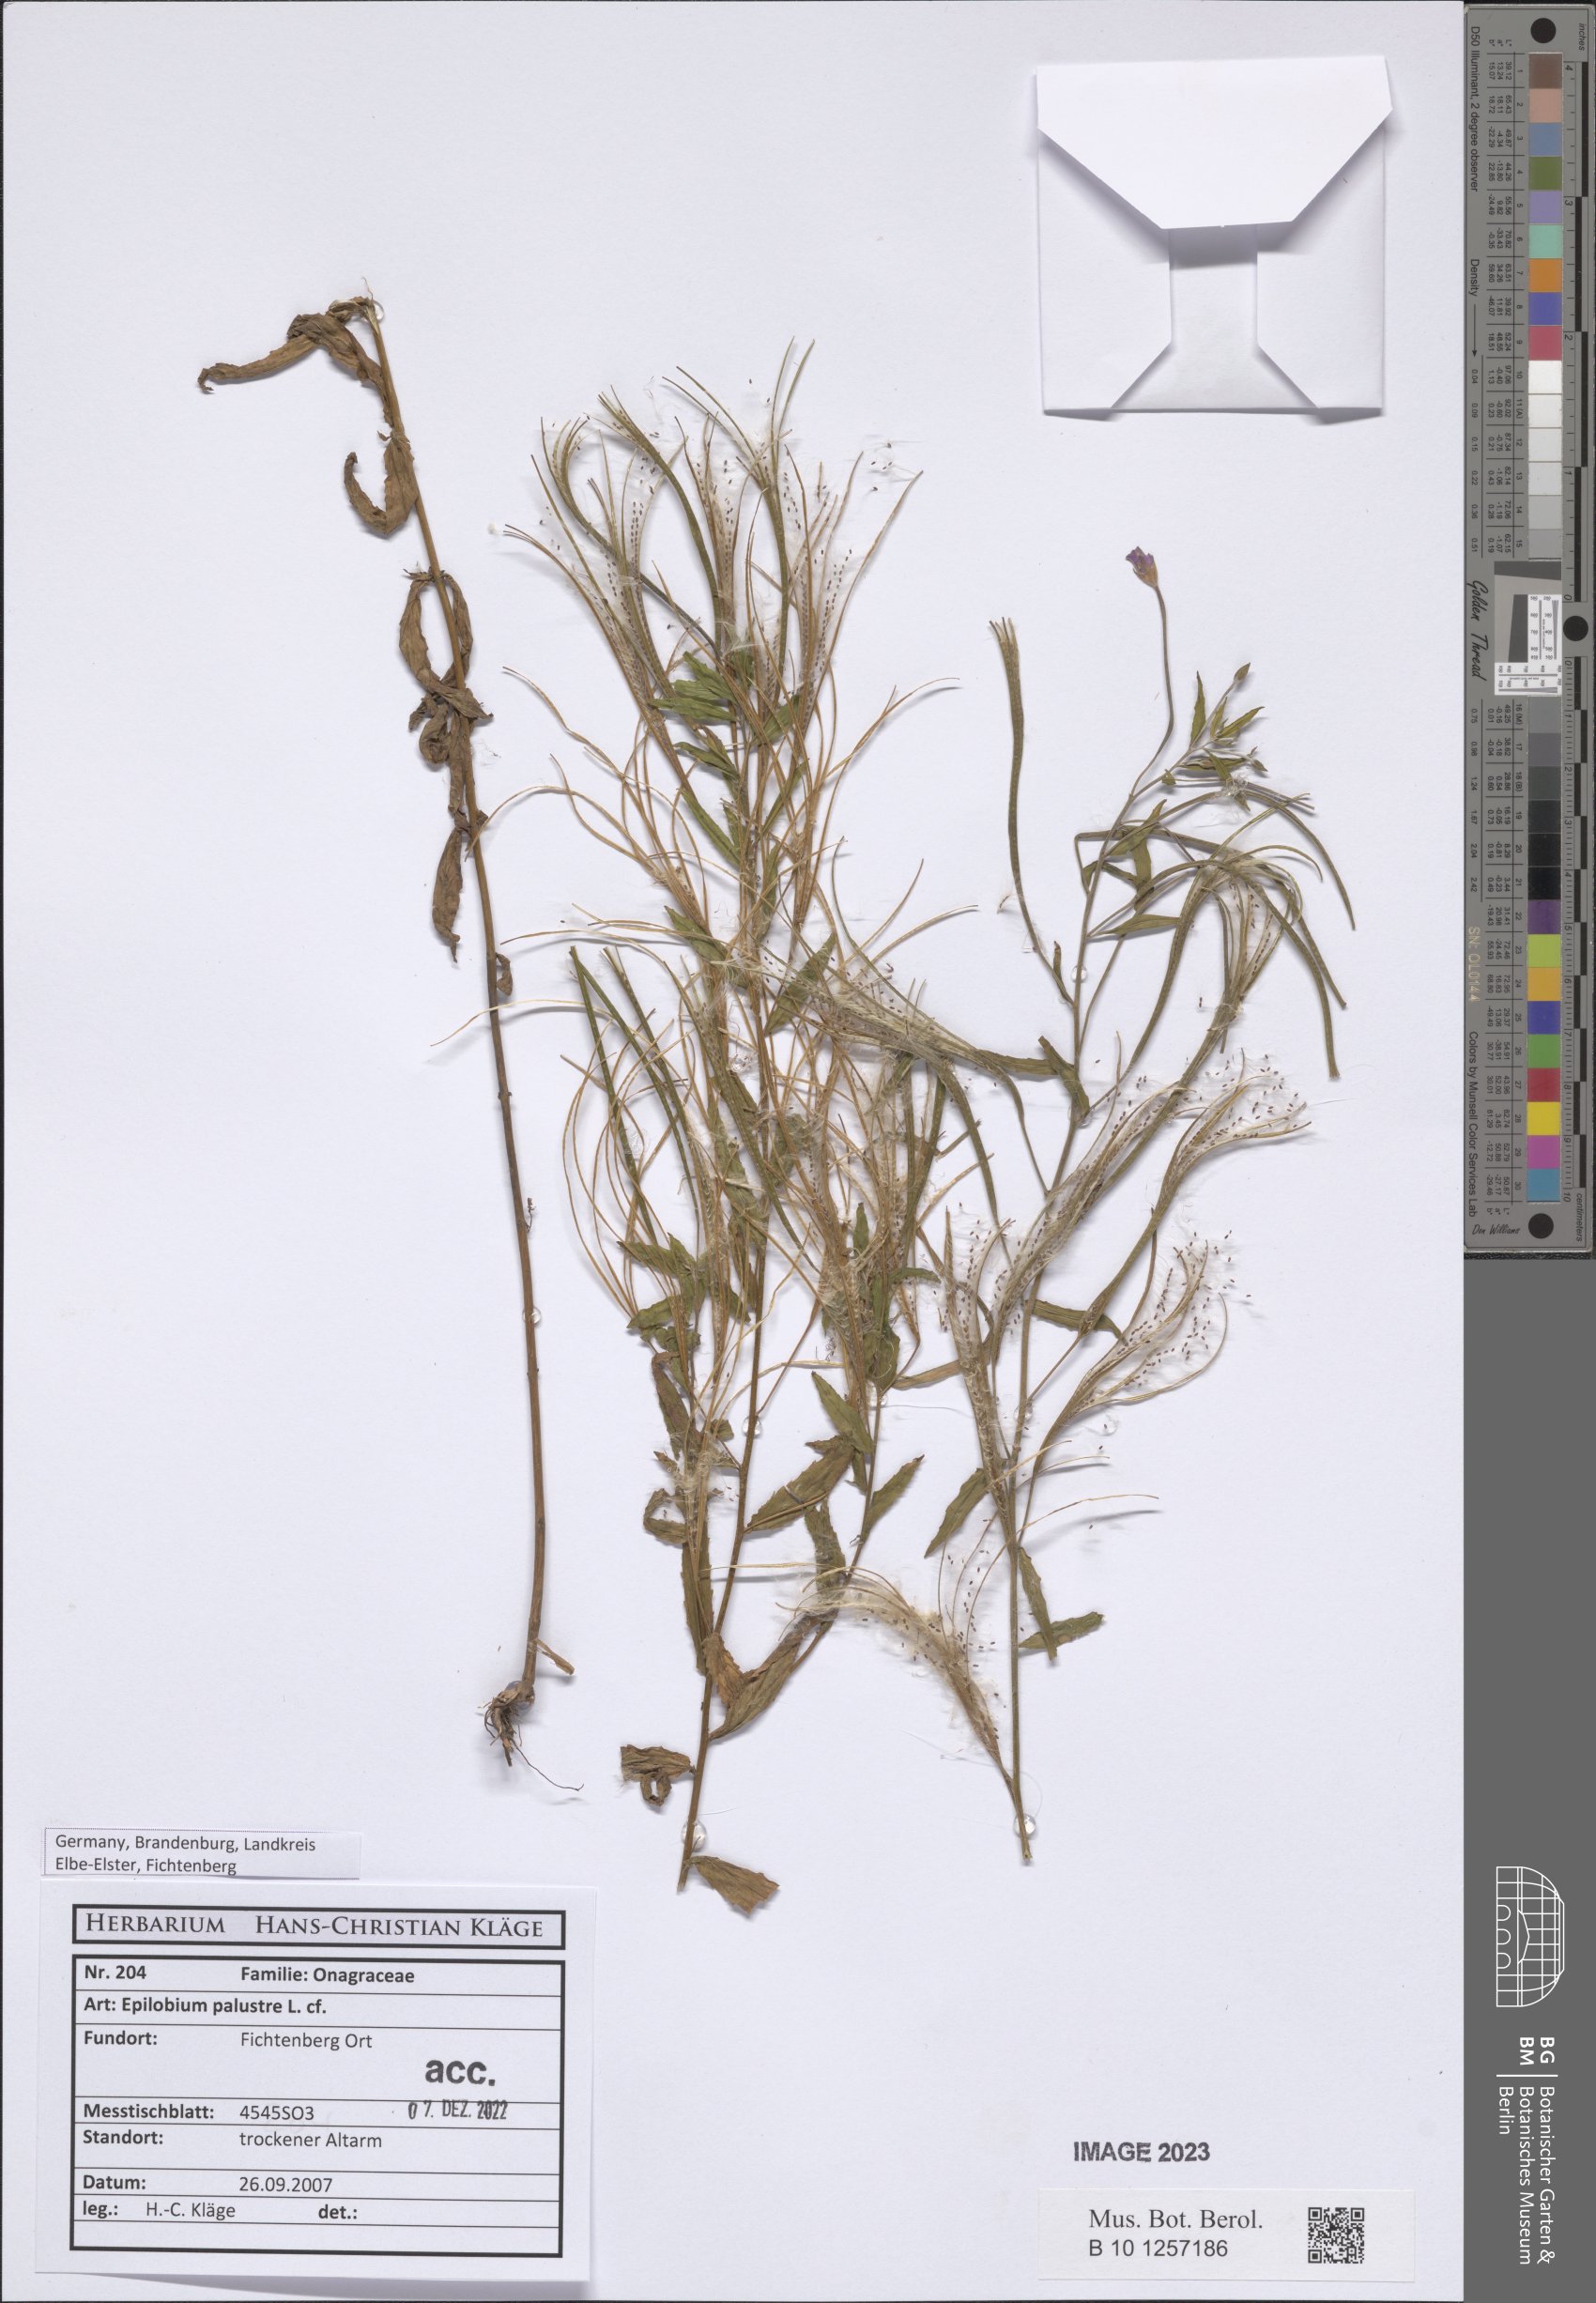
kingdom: Plantae
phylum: Tracheophyta
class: Magnoliopsida
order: Myrtales
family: Onagraceae
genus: Epilobium
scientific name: Epilobium palustre
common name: Marsh willowherb
